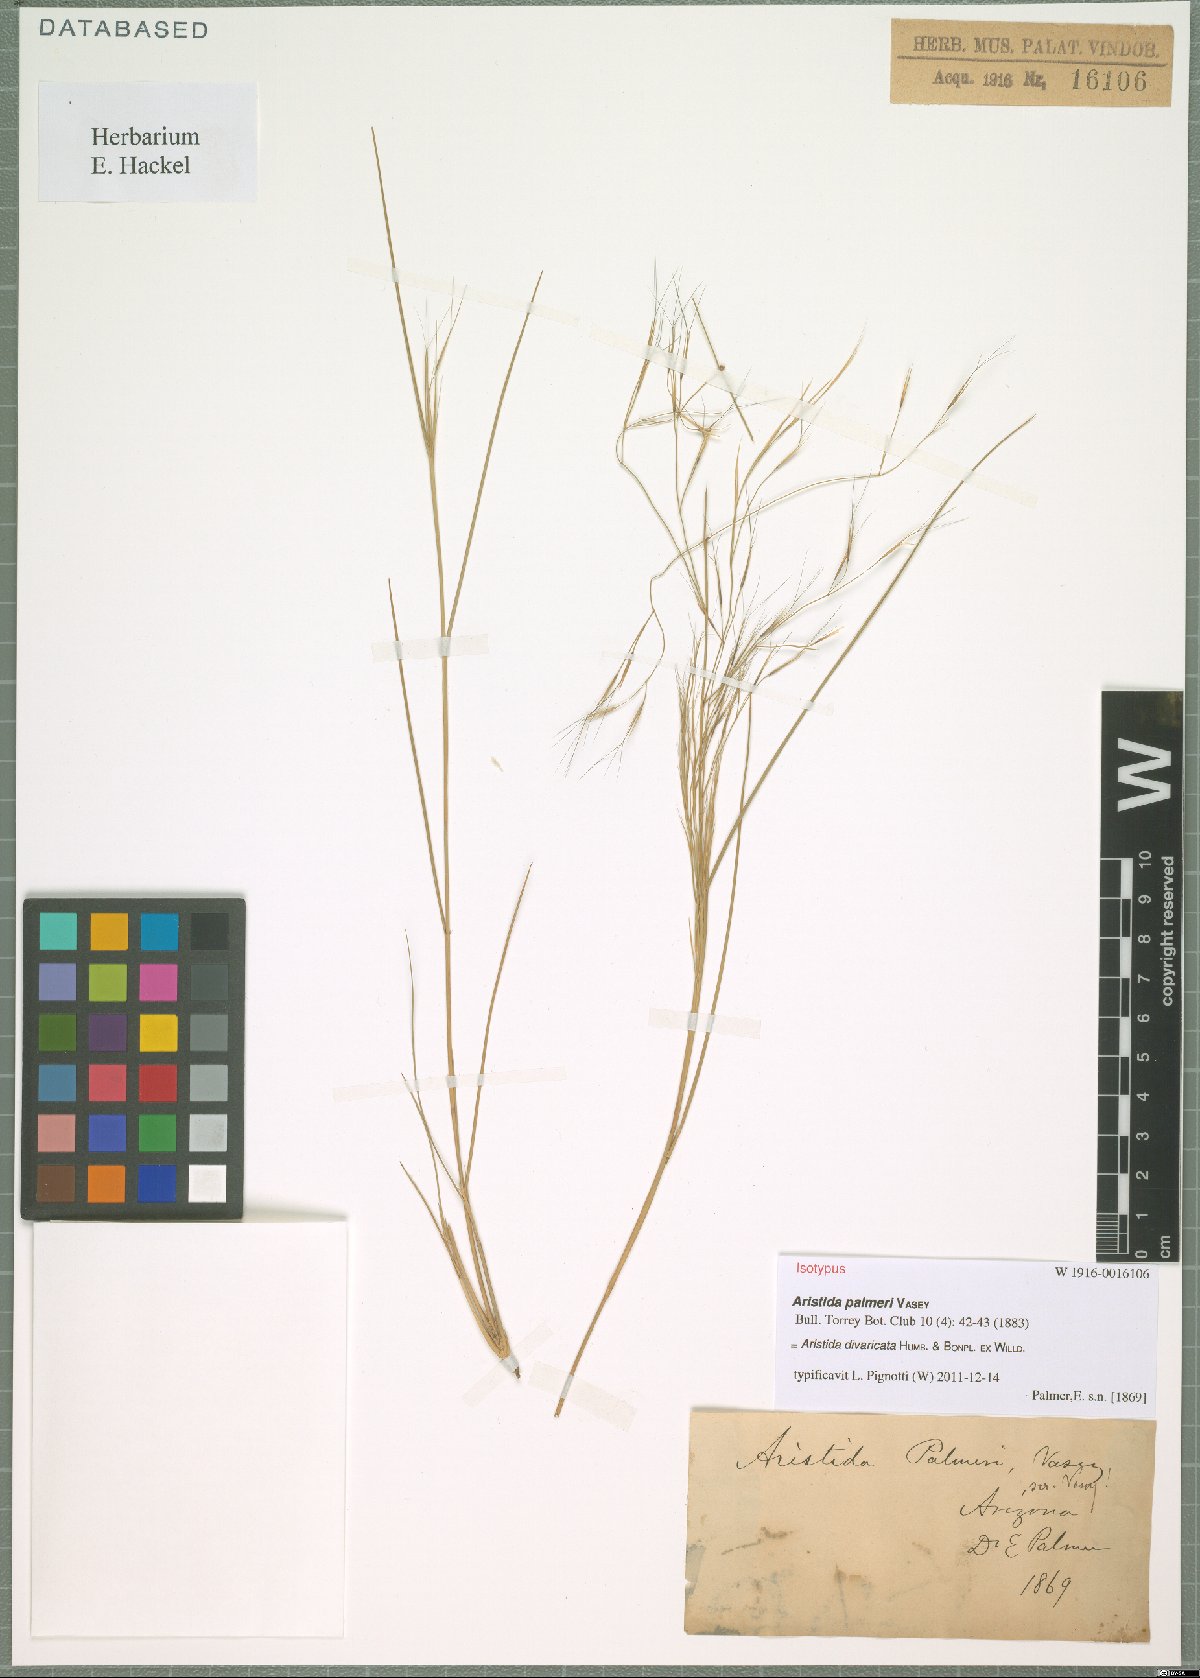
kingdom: Plantae
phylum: Tracheophyta
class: Liliopsida
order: Poales
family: Poaceae
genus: Aristida
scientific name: Aristida divaricata
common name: Poverty grass
